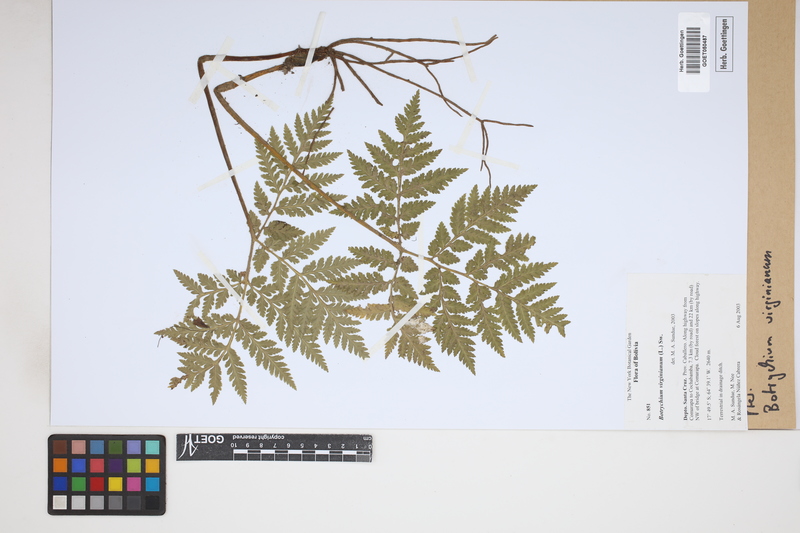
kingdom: Plantae
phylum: Tracheophyta
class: Polypodiopsida
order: Ophioglossales
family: Ophioglossaceae
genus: Botrychium
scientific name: Botrychium virginianum
